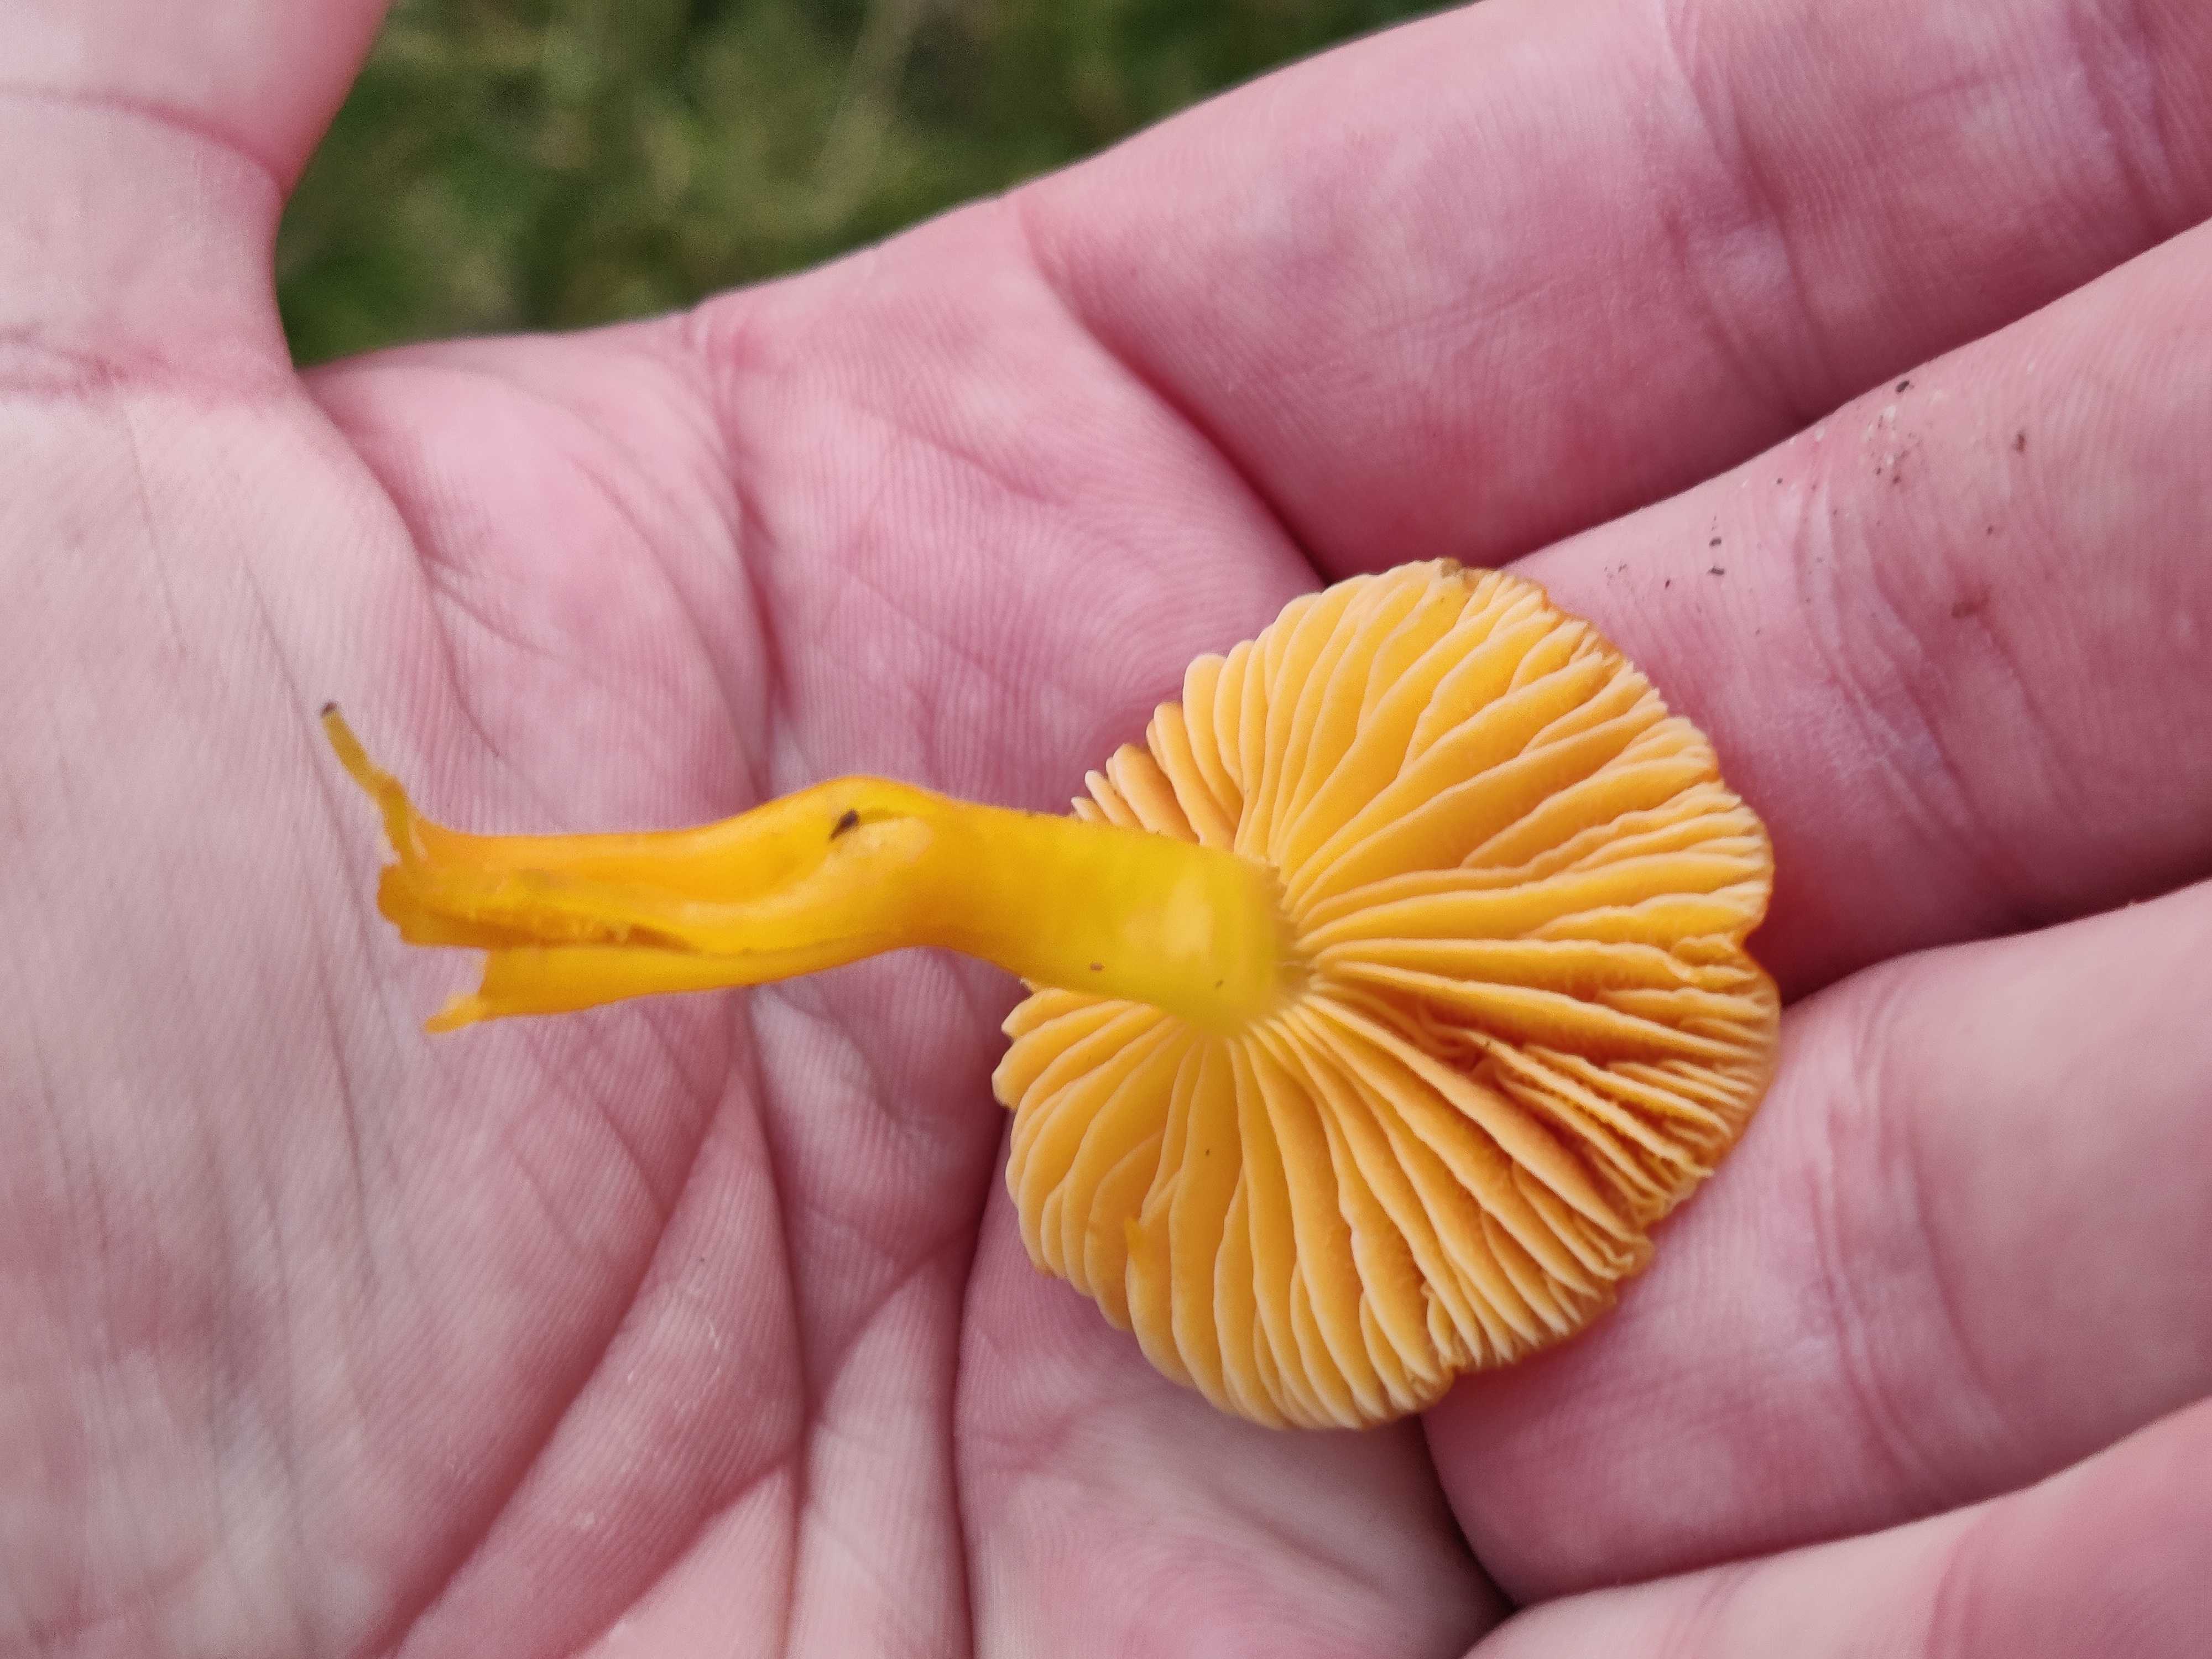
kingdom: Fungi
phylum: Basidiomycota
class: Agaricomycetes
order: Agaricales
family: Hygrophoraceae
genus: Hygrocybe
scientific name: Hygrocybe chlorophana
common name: gul vokshat
